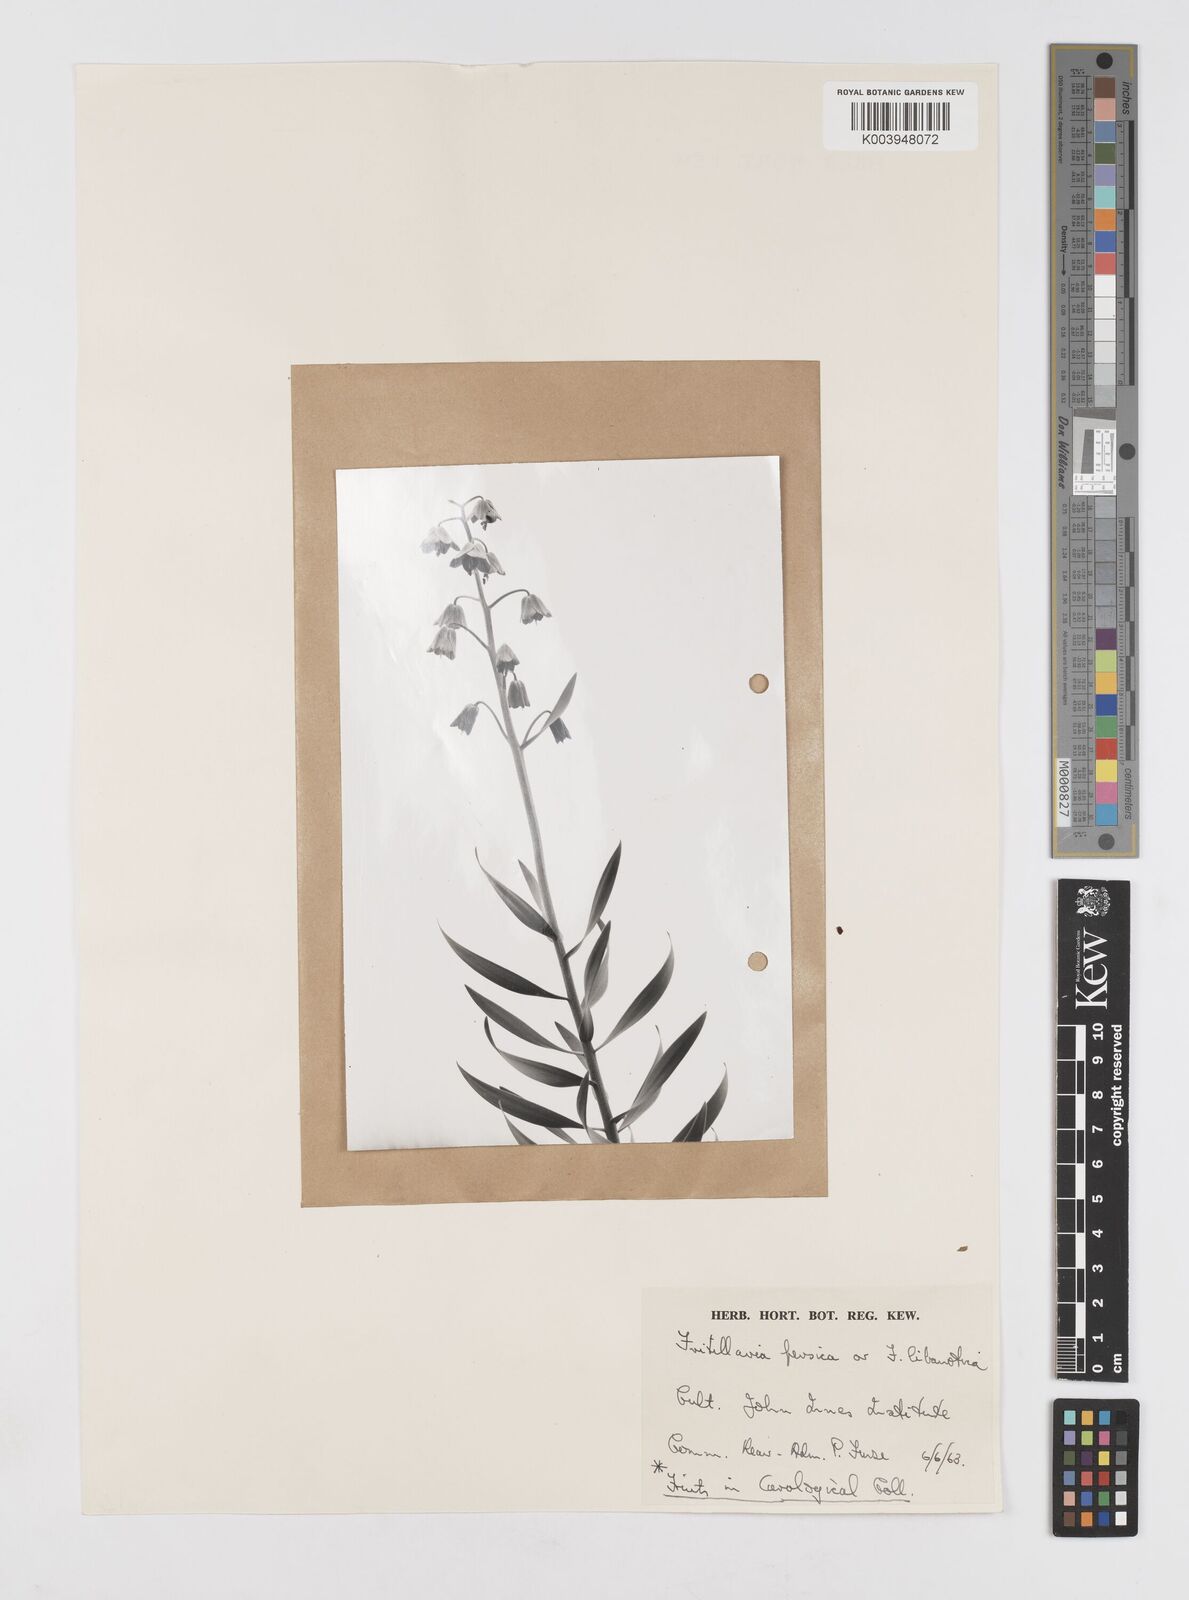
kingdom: Plantae
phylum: Tracheophyta
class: Liliopsida
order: Liliales
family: Liliaceae
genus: Fritillaria
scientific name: Fritillaria persica
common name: Persian fritillary
